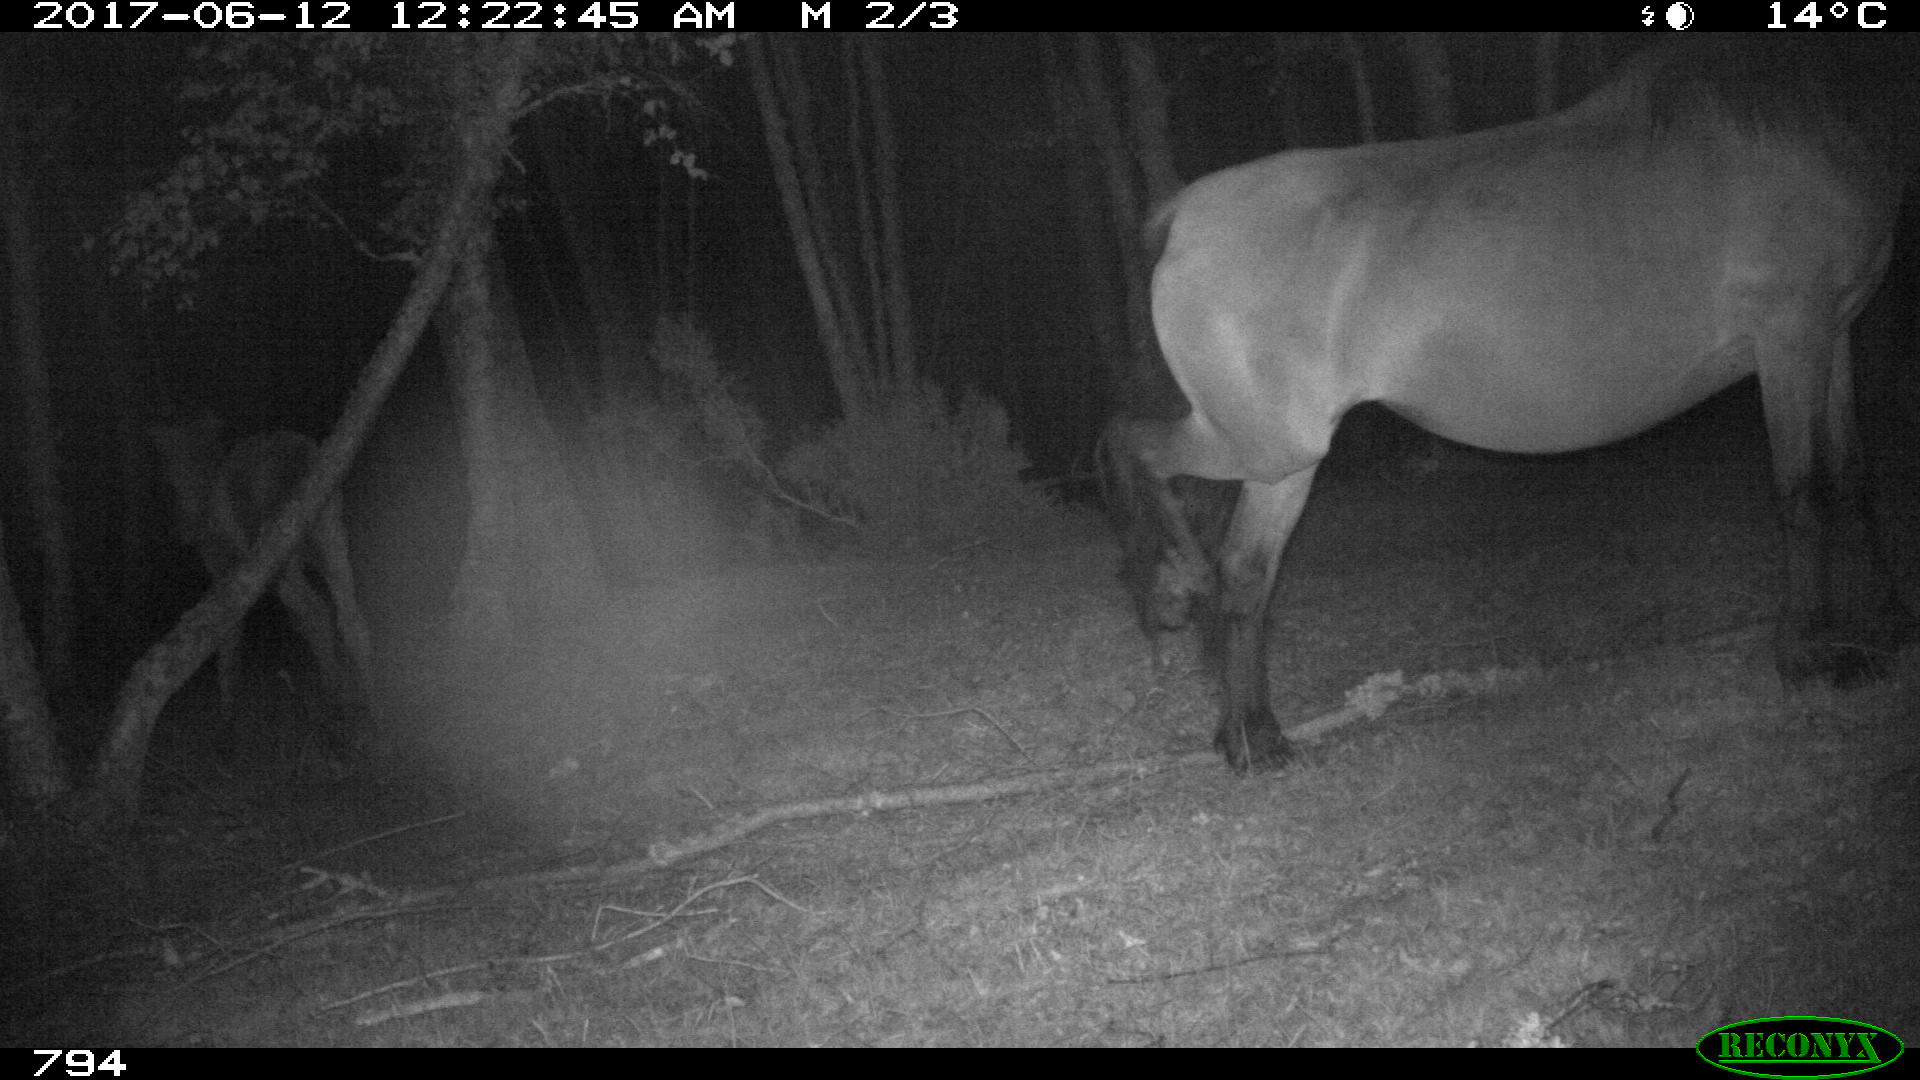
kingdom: Animalia
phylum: Chordata
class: Mammalia
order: Perissodactyla
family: Equidae
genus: Equus
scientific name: Equus caballus
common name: Horse
